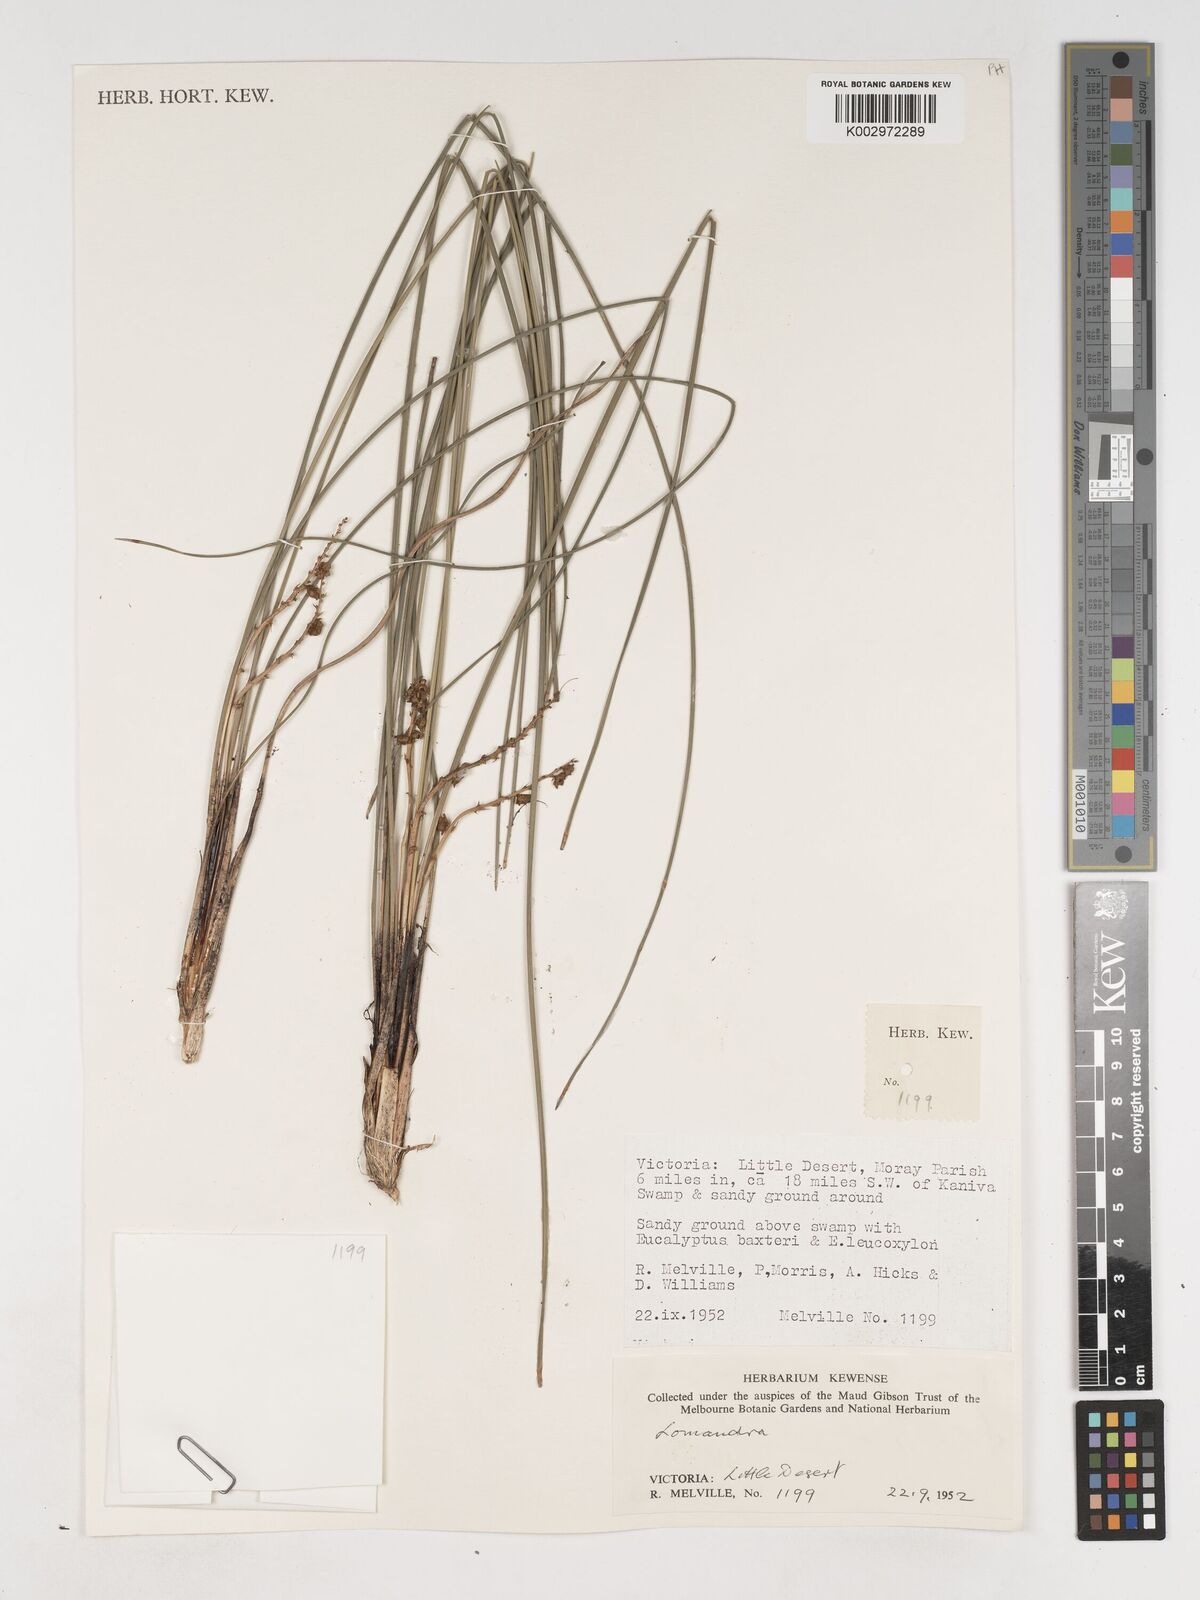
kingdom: Plantae
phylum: Tracheophyta
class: Liliopsida
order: Asparagales
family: Asparagaceae
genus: Lomandra
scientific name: Lomandra
